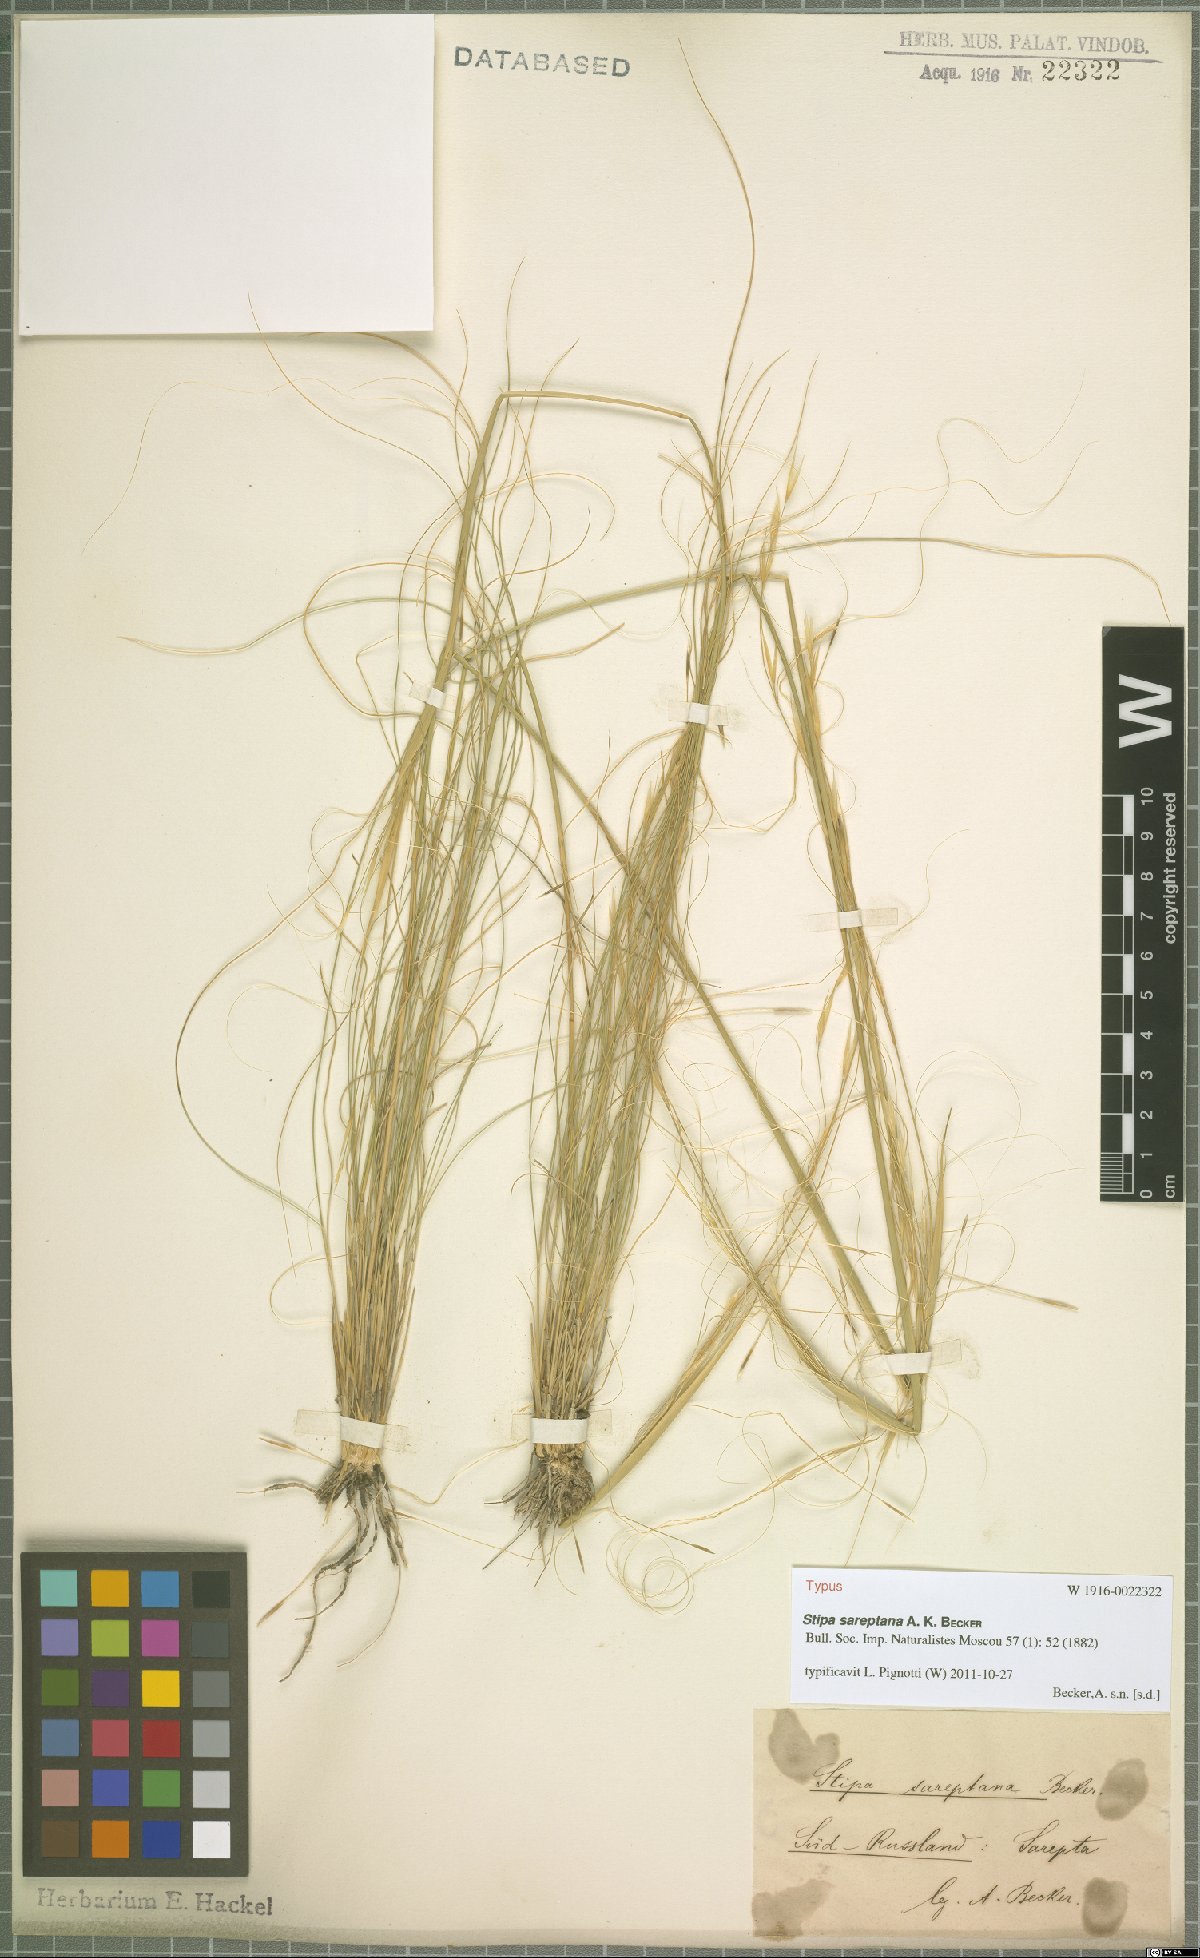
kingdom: Plantae
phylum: Tracheophyta
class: Liliopsida
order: Poales
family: Poaceae
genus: Stipa
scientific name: Stipa sareptana
